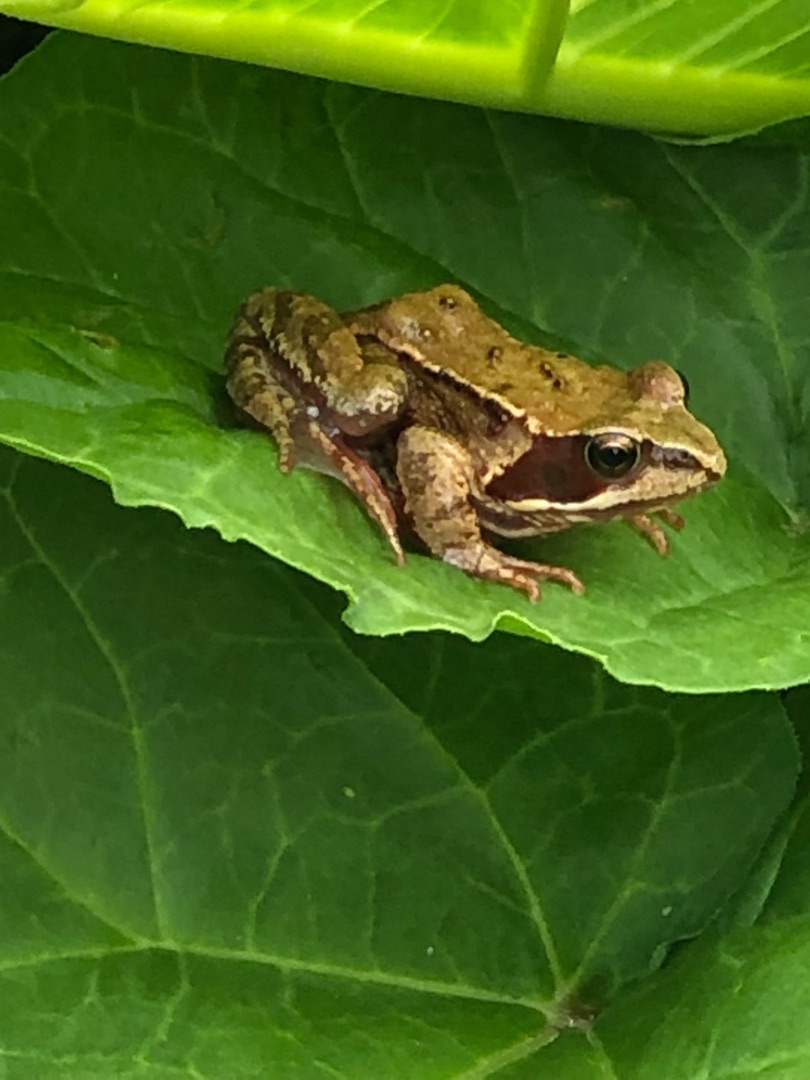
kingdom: Animalia
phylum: Chordata
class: Amphibia
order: Anura
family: Ranidae
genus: Rana
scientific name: Rana temporaria
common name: Butsnudet frø
